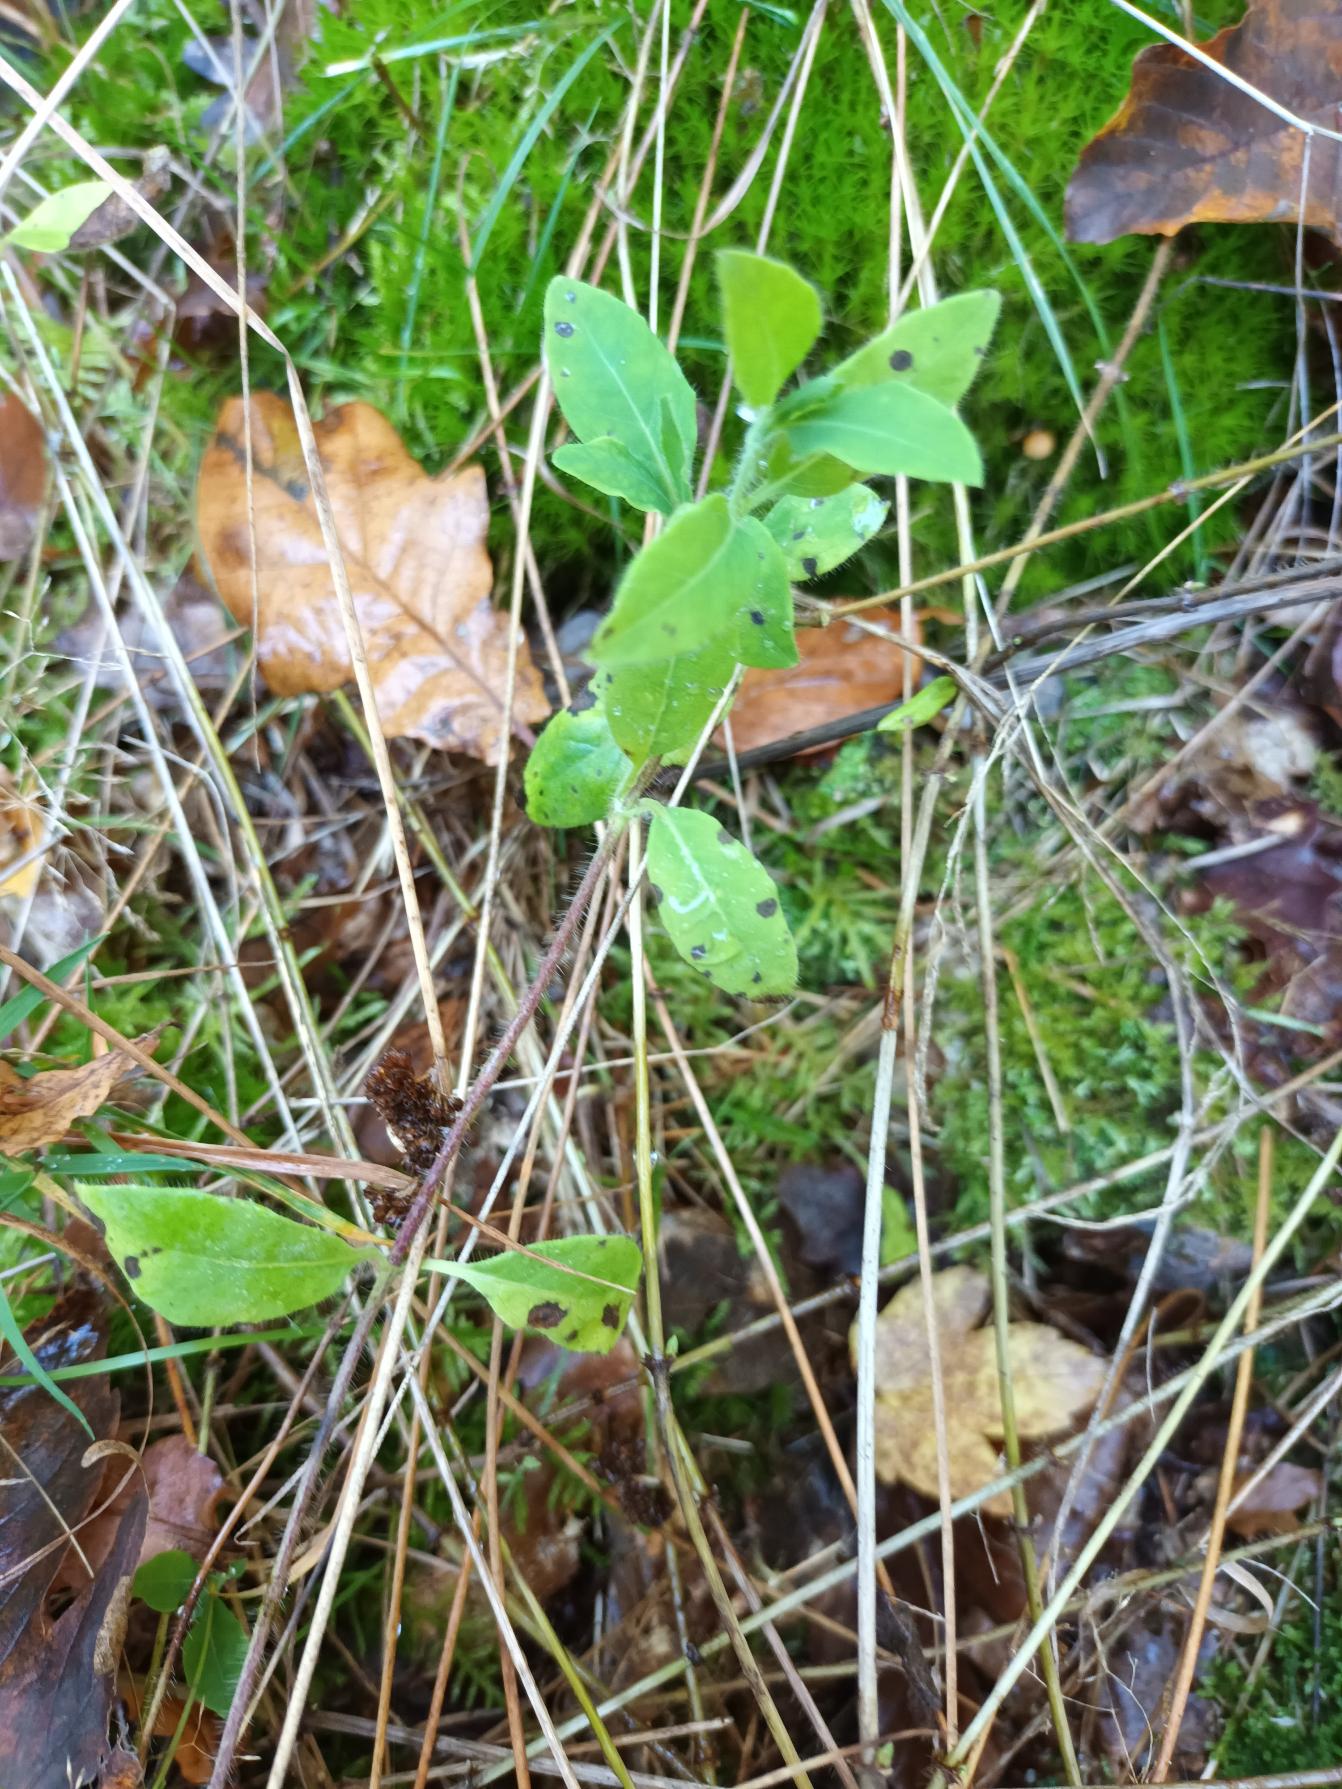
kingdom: Plantae
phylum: Tracheophyta
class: Magnoliopsida
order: Dipsacales
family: Caprifoliaceae
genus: Lonicera
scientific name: Lonicera periclymenum
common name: Almindelig gedeblad
